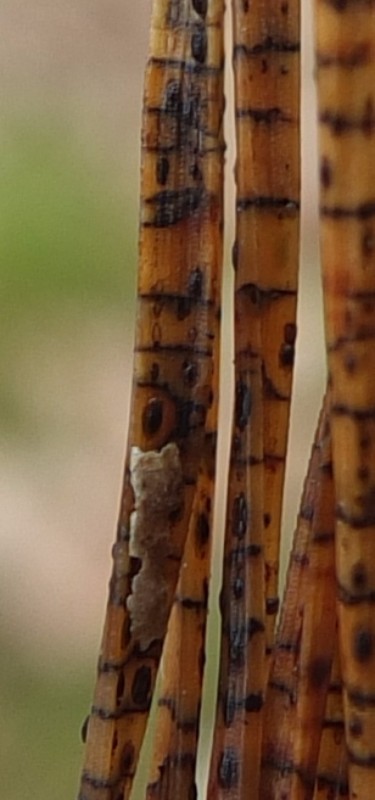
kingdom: Fungi
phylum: Ascomycota
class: Leotiomycetes
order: Rhytismatales
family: Rhytismataceae
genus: Lophodermium
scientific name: Lophodermium pinastri
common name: fyrre-fureplet
